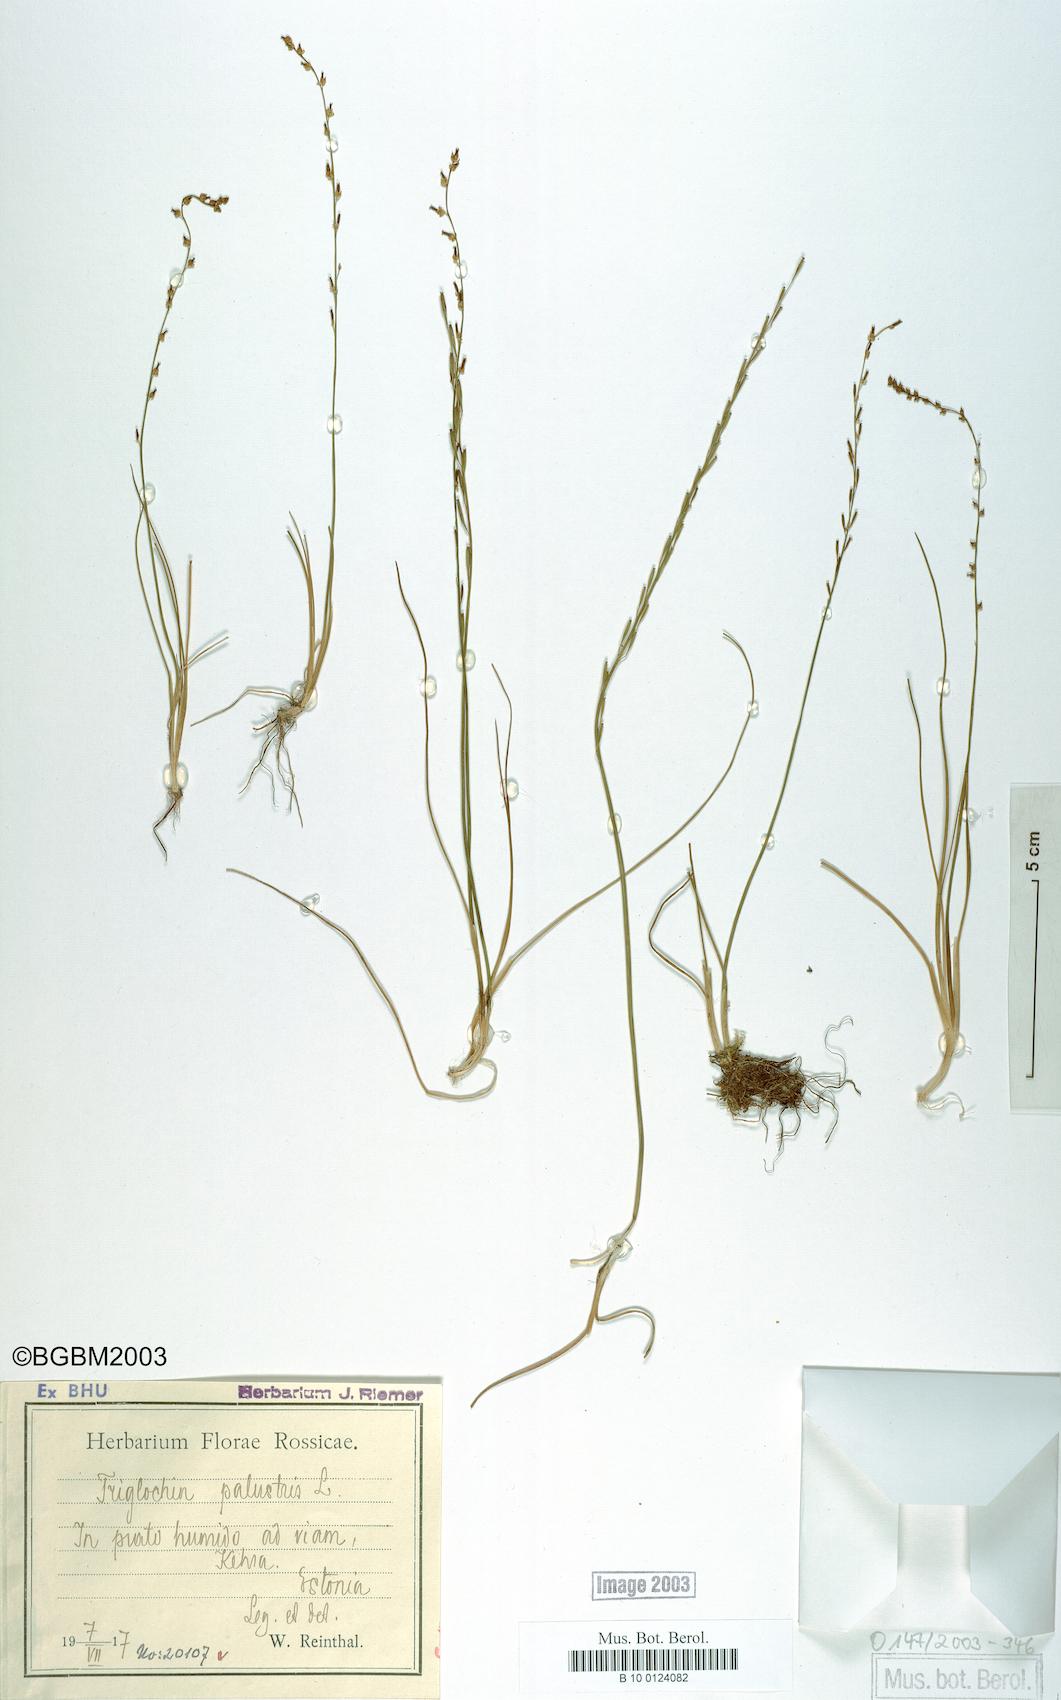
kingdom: Plantae
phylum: Tracheophyta
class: Liliopsida
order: Alismatales
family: Juncaginaceae
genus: Triglochin
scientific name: Triglochin palustris
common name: Marsh arrowgrass
